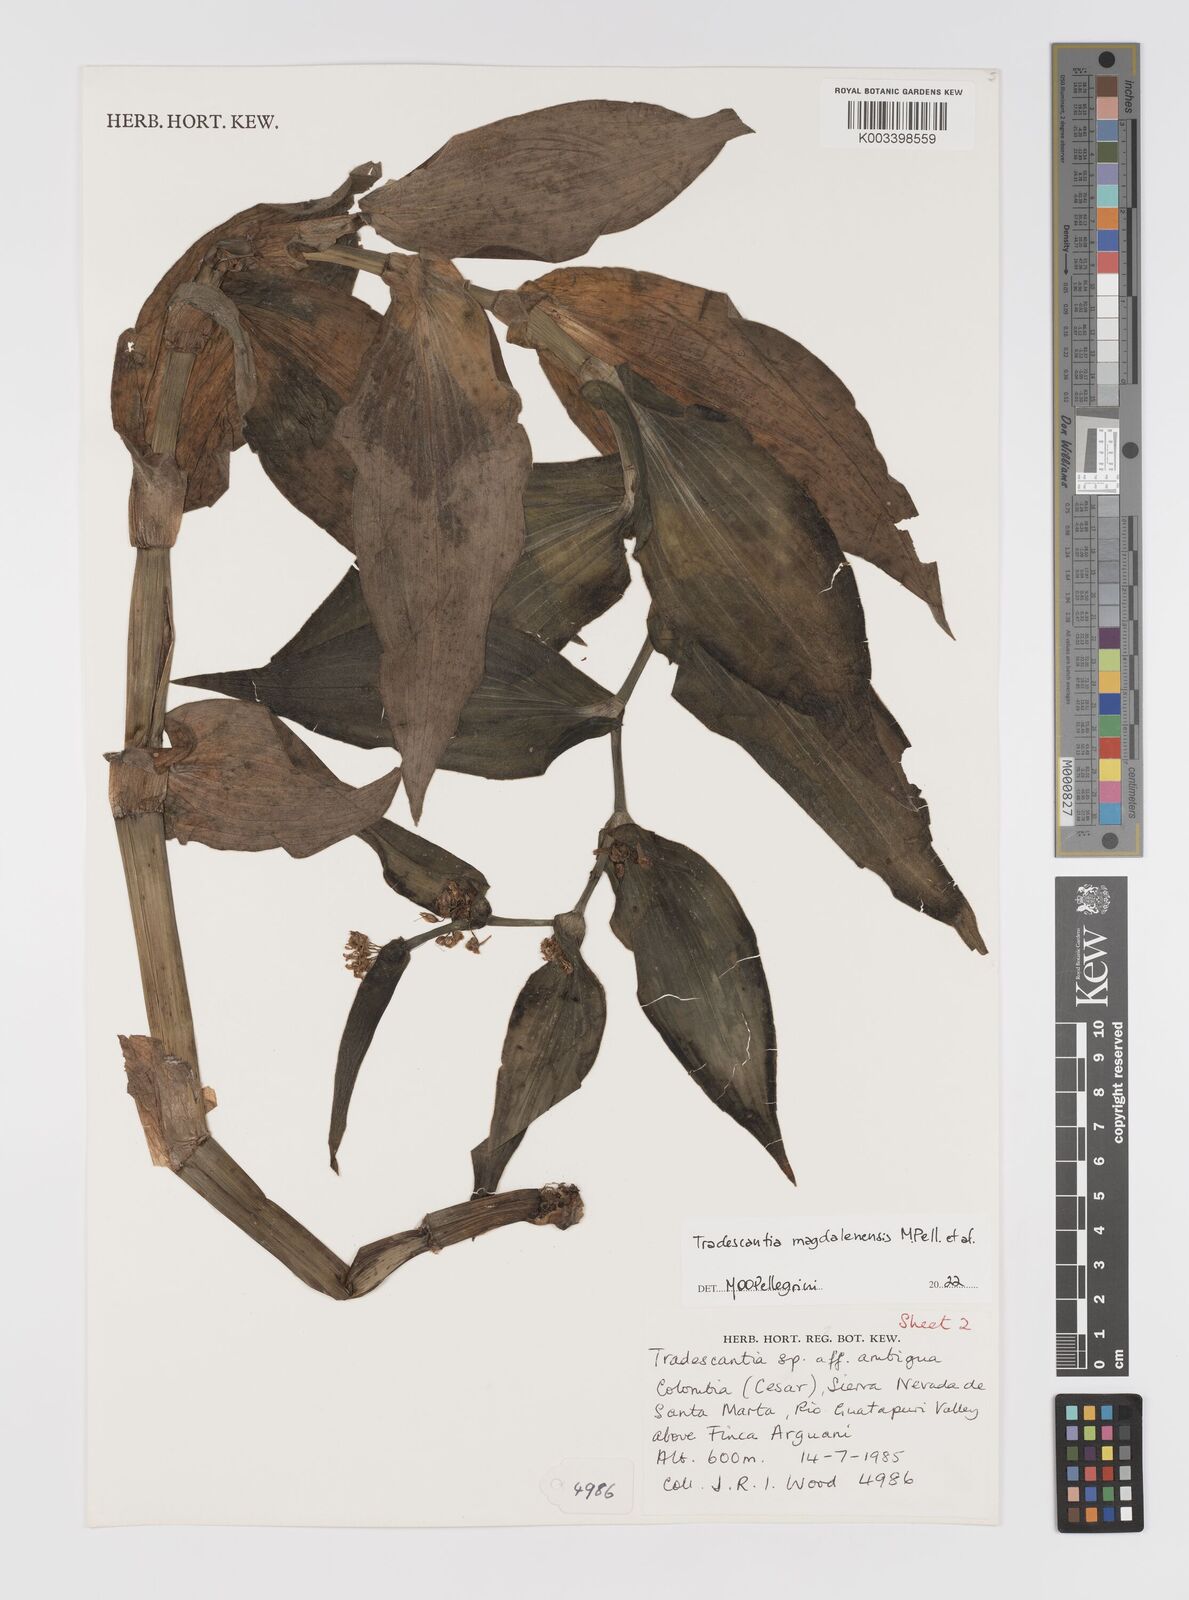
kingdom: Plantae
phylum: Tracheophyta
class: Liliopsida
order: Commelinales
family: Commelinaceae
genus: Tradescantia
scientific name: Tradescantia
